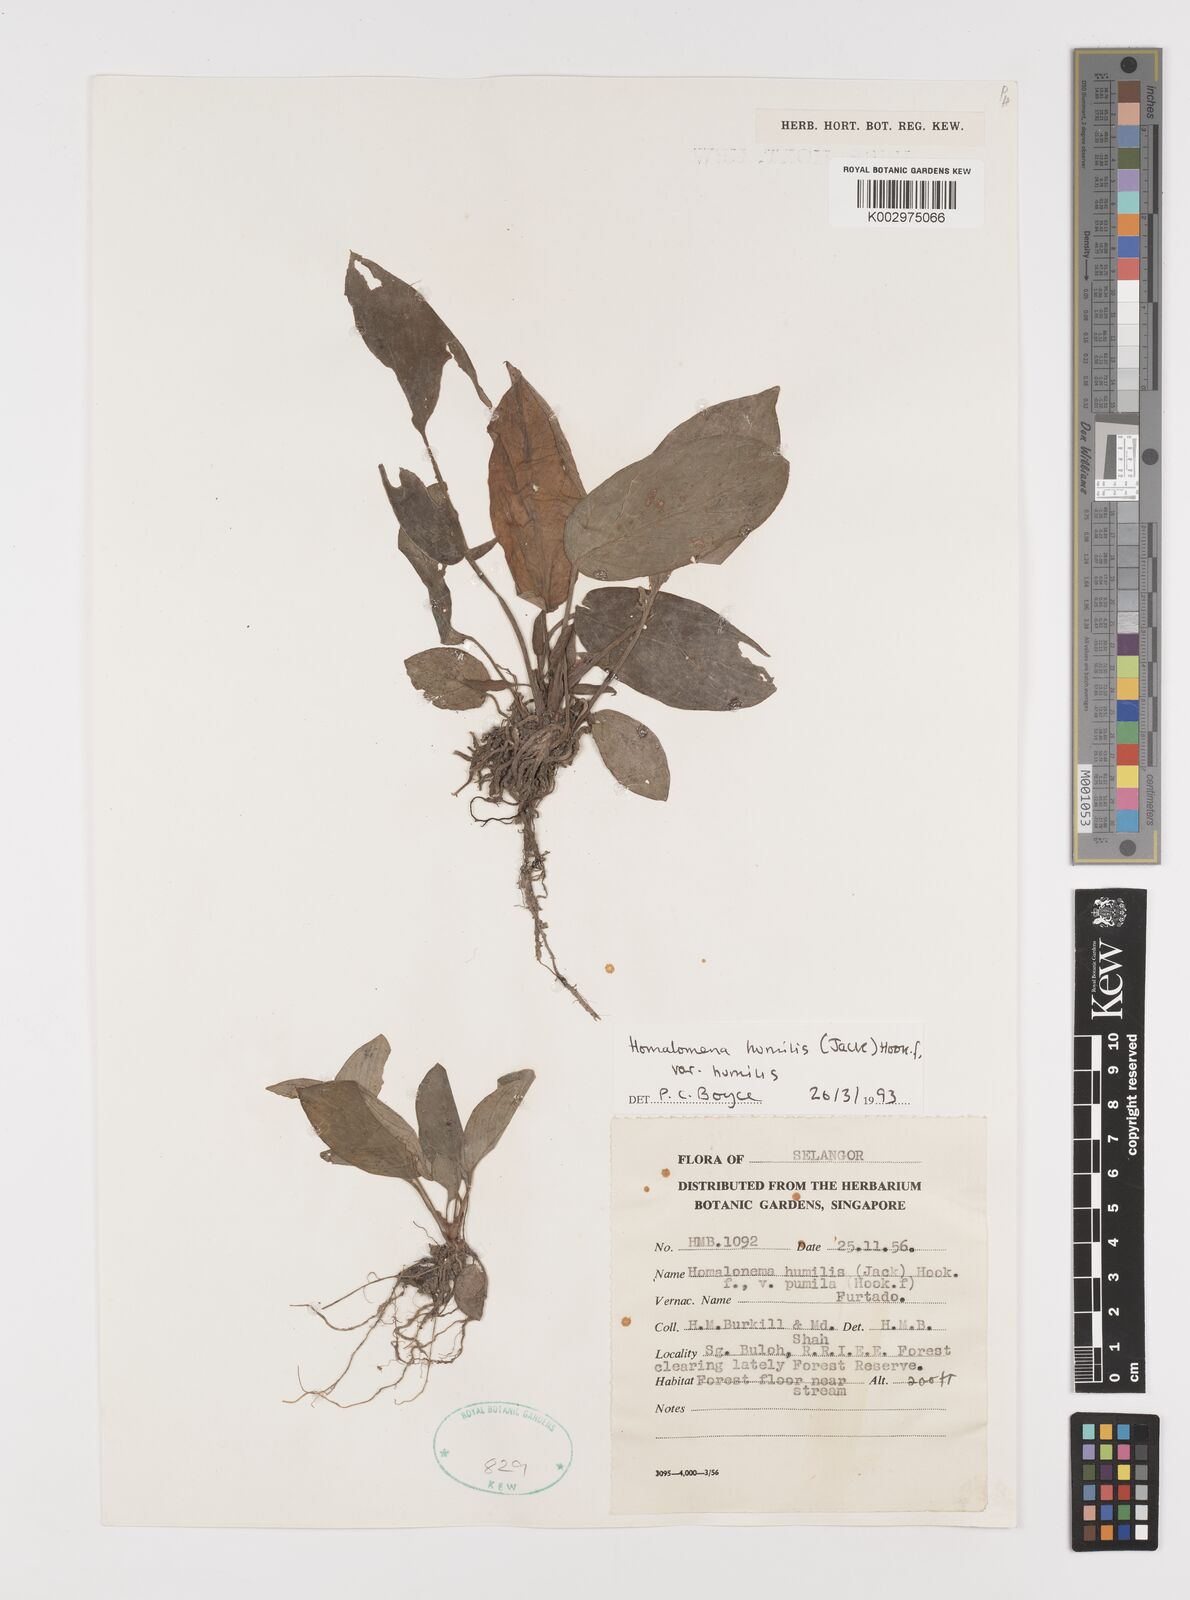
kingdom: Plantae
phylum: Tracheophyta
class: Liliopsida
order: Alismatales
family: Araceae
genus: Homalomena
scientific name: Homalomena humilis
